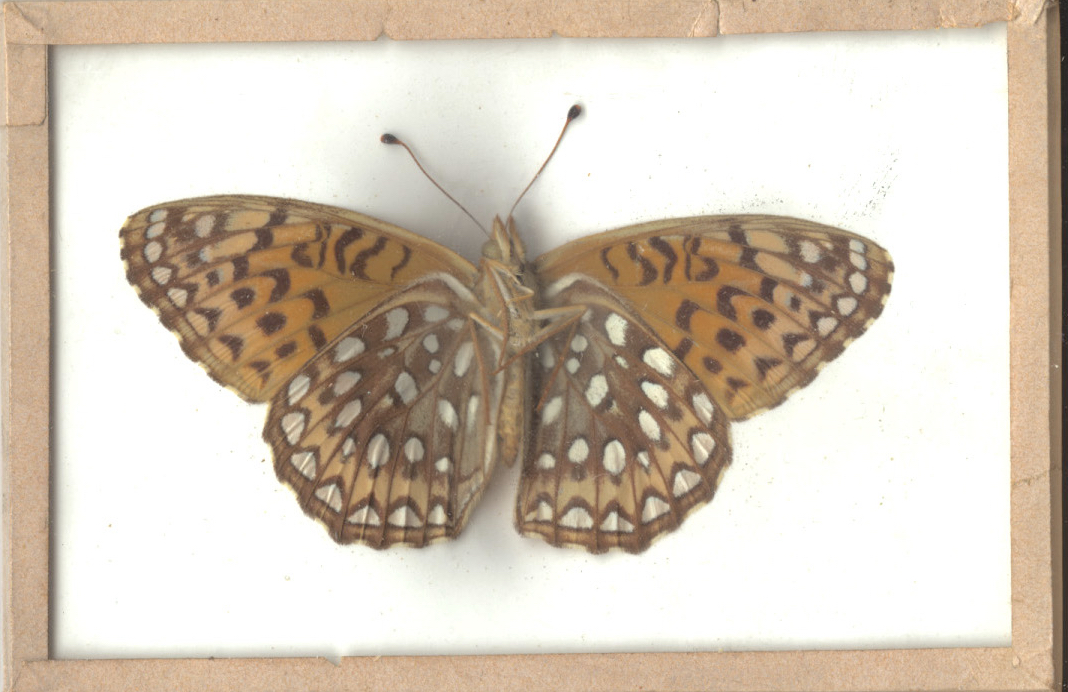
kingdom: Animalia
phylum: Arthropoda
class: Insecta
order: Lepidoptera
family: Nymphalidae
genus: Speyeria
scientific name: Speyeria atlantis
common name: Atlantis Fritillary
